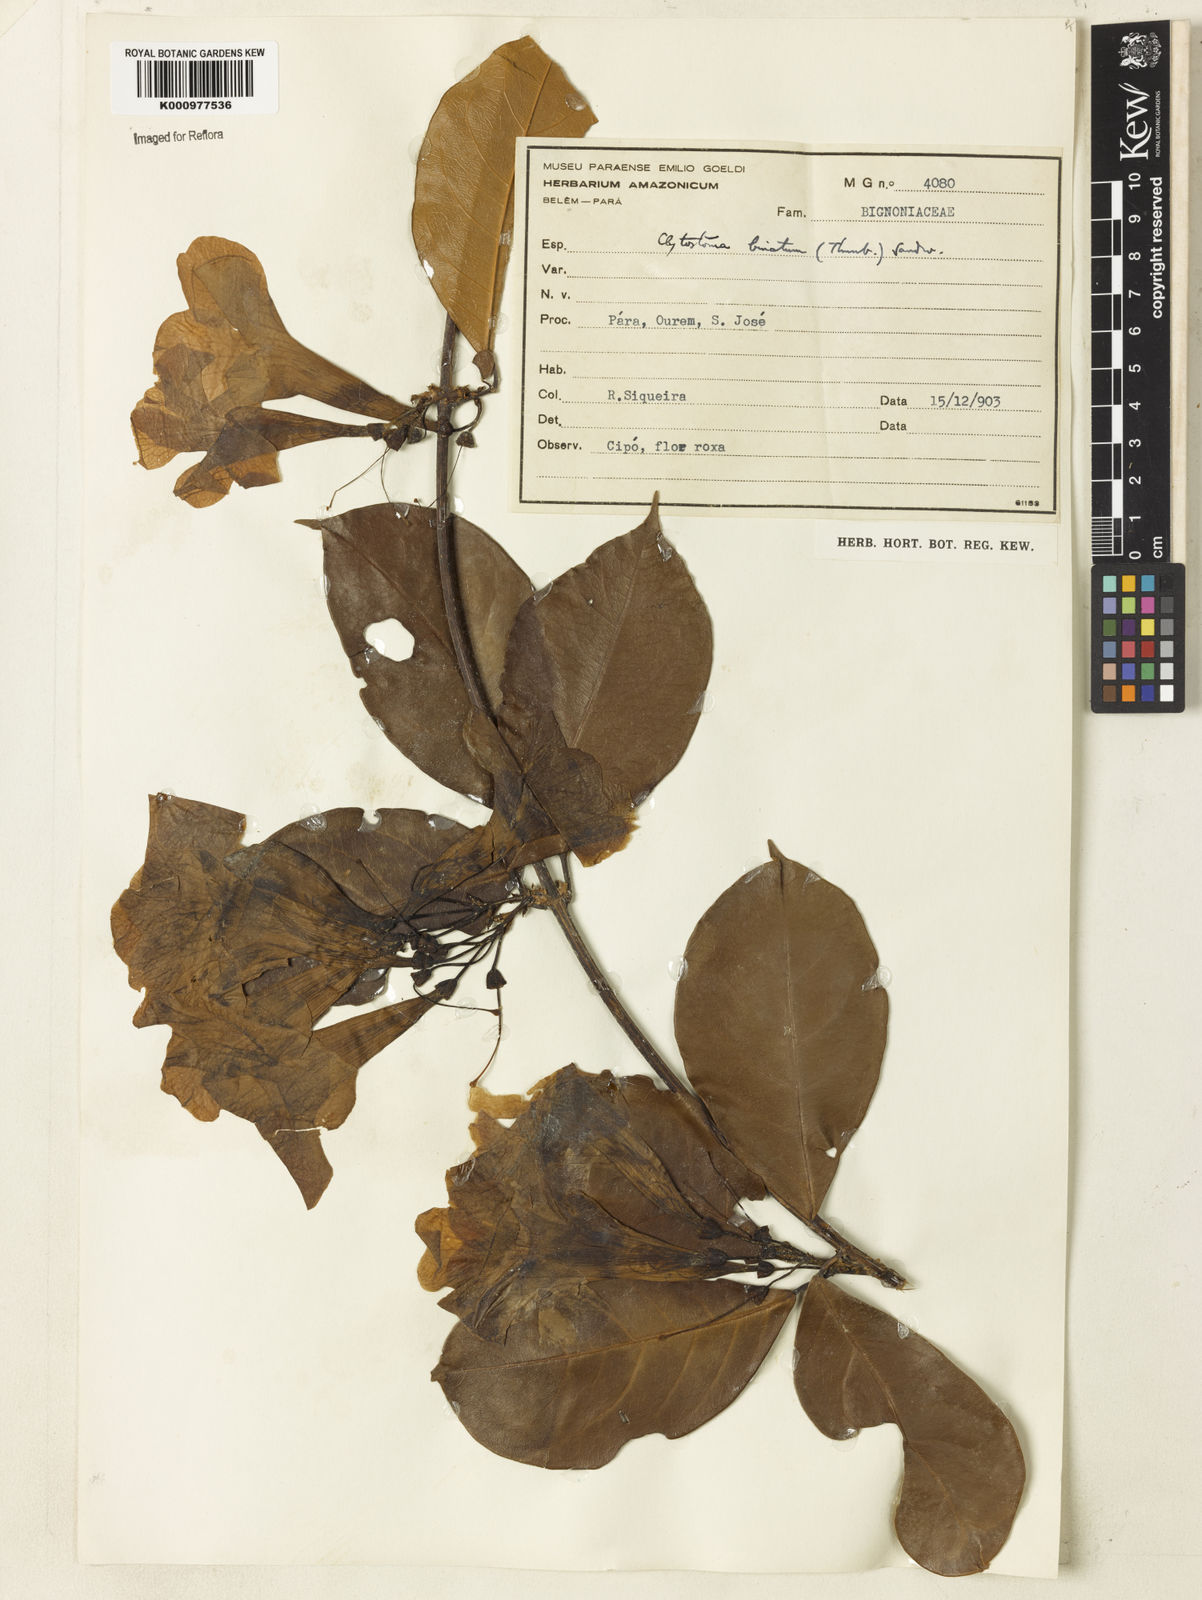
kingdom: Plantae
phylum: Tracheophyta
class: Magnoliopsida
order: Lamiales
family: Bignoniaceae
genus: Bignonia
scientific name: Bignonia binata
